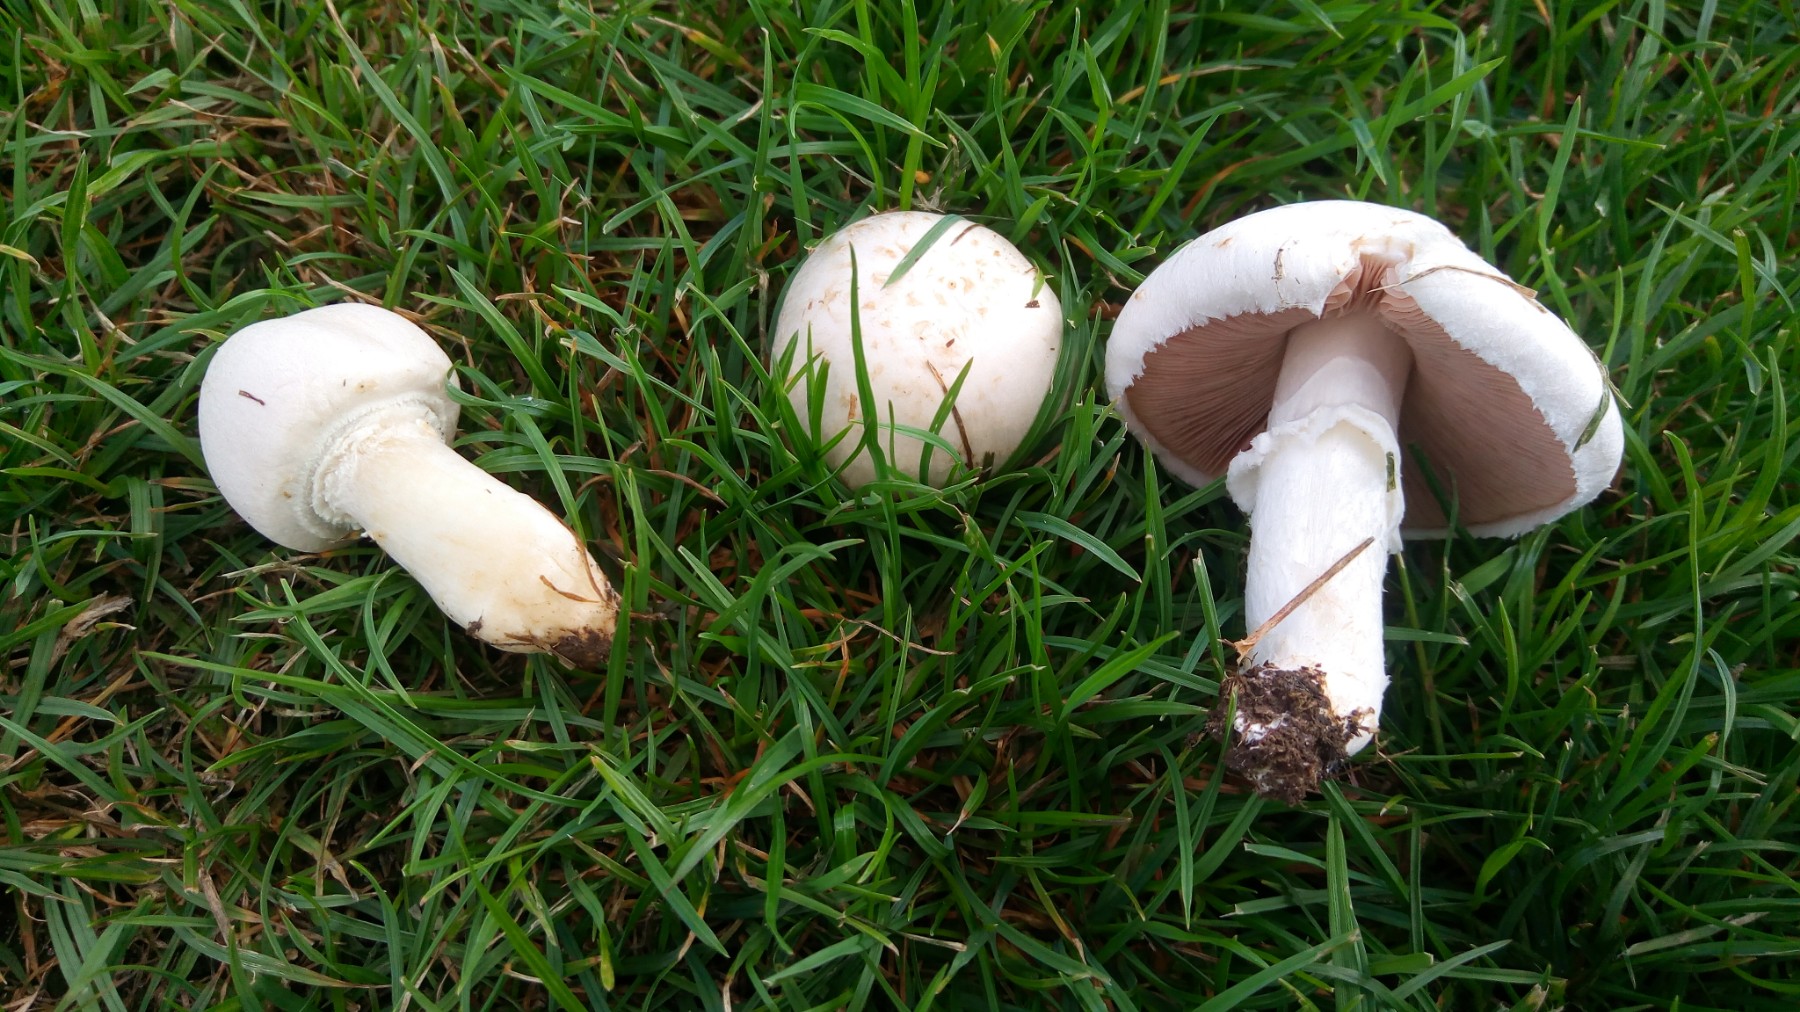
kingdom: Fungi
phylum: Basidiomycota
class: Agaricomycetes
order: Agaricales
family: Agaricaceae
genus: Agaricus
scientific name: Agaricus campestris
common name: mark-champignon
